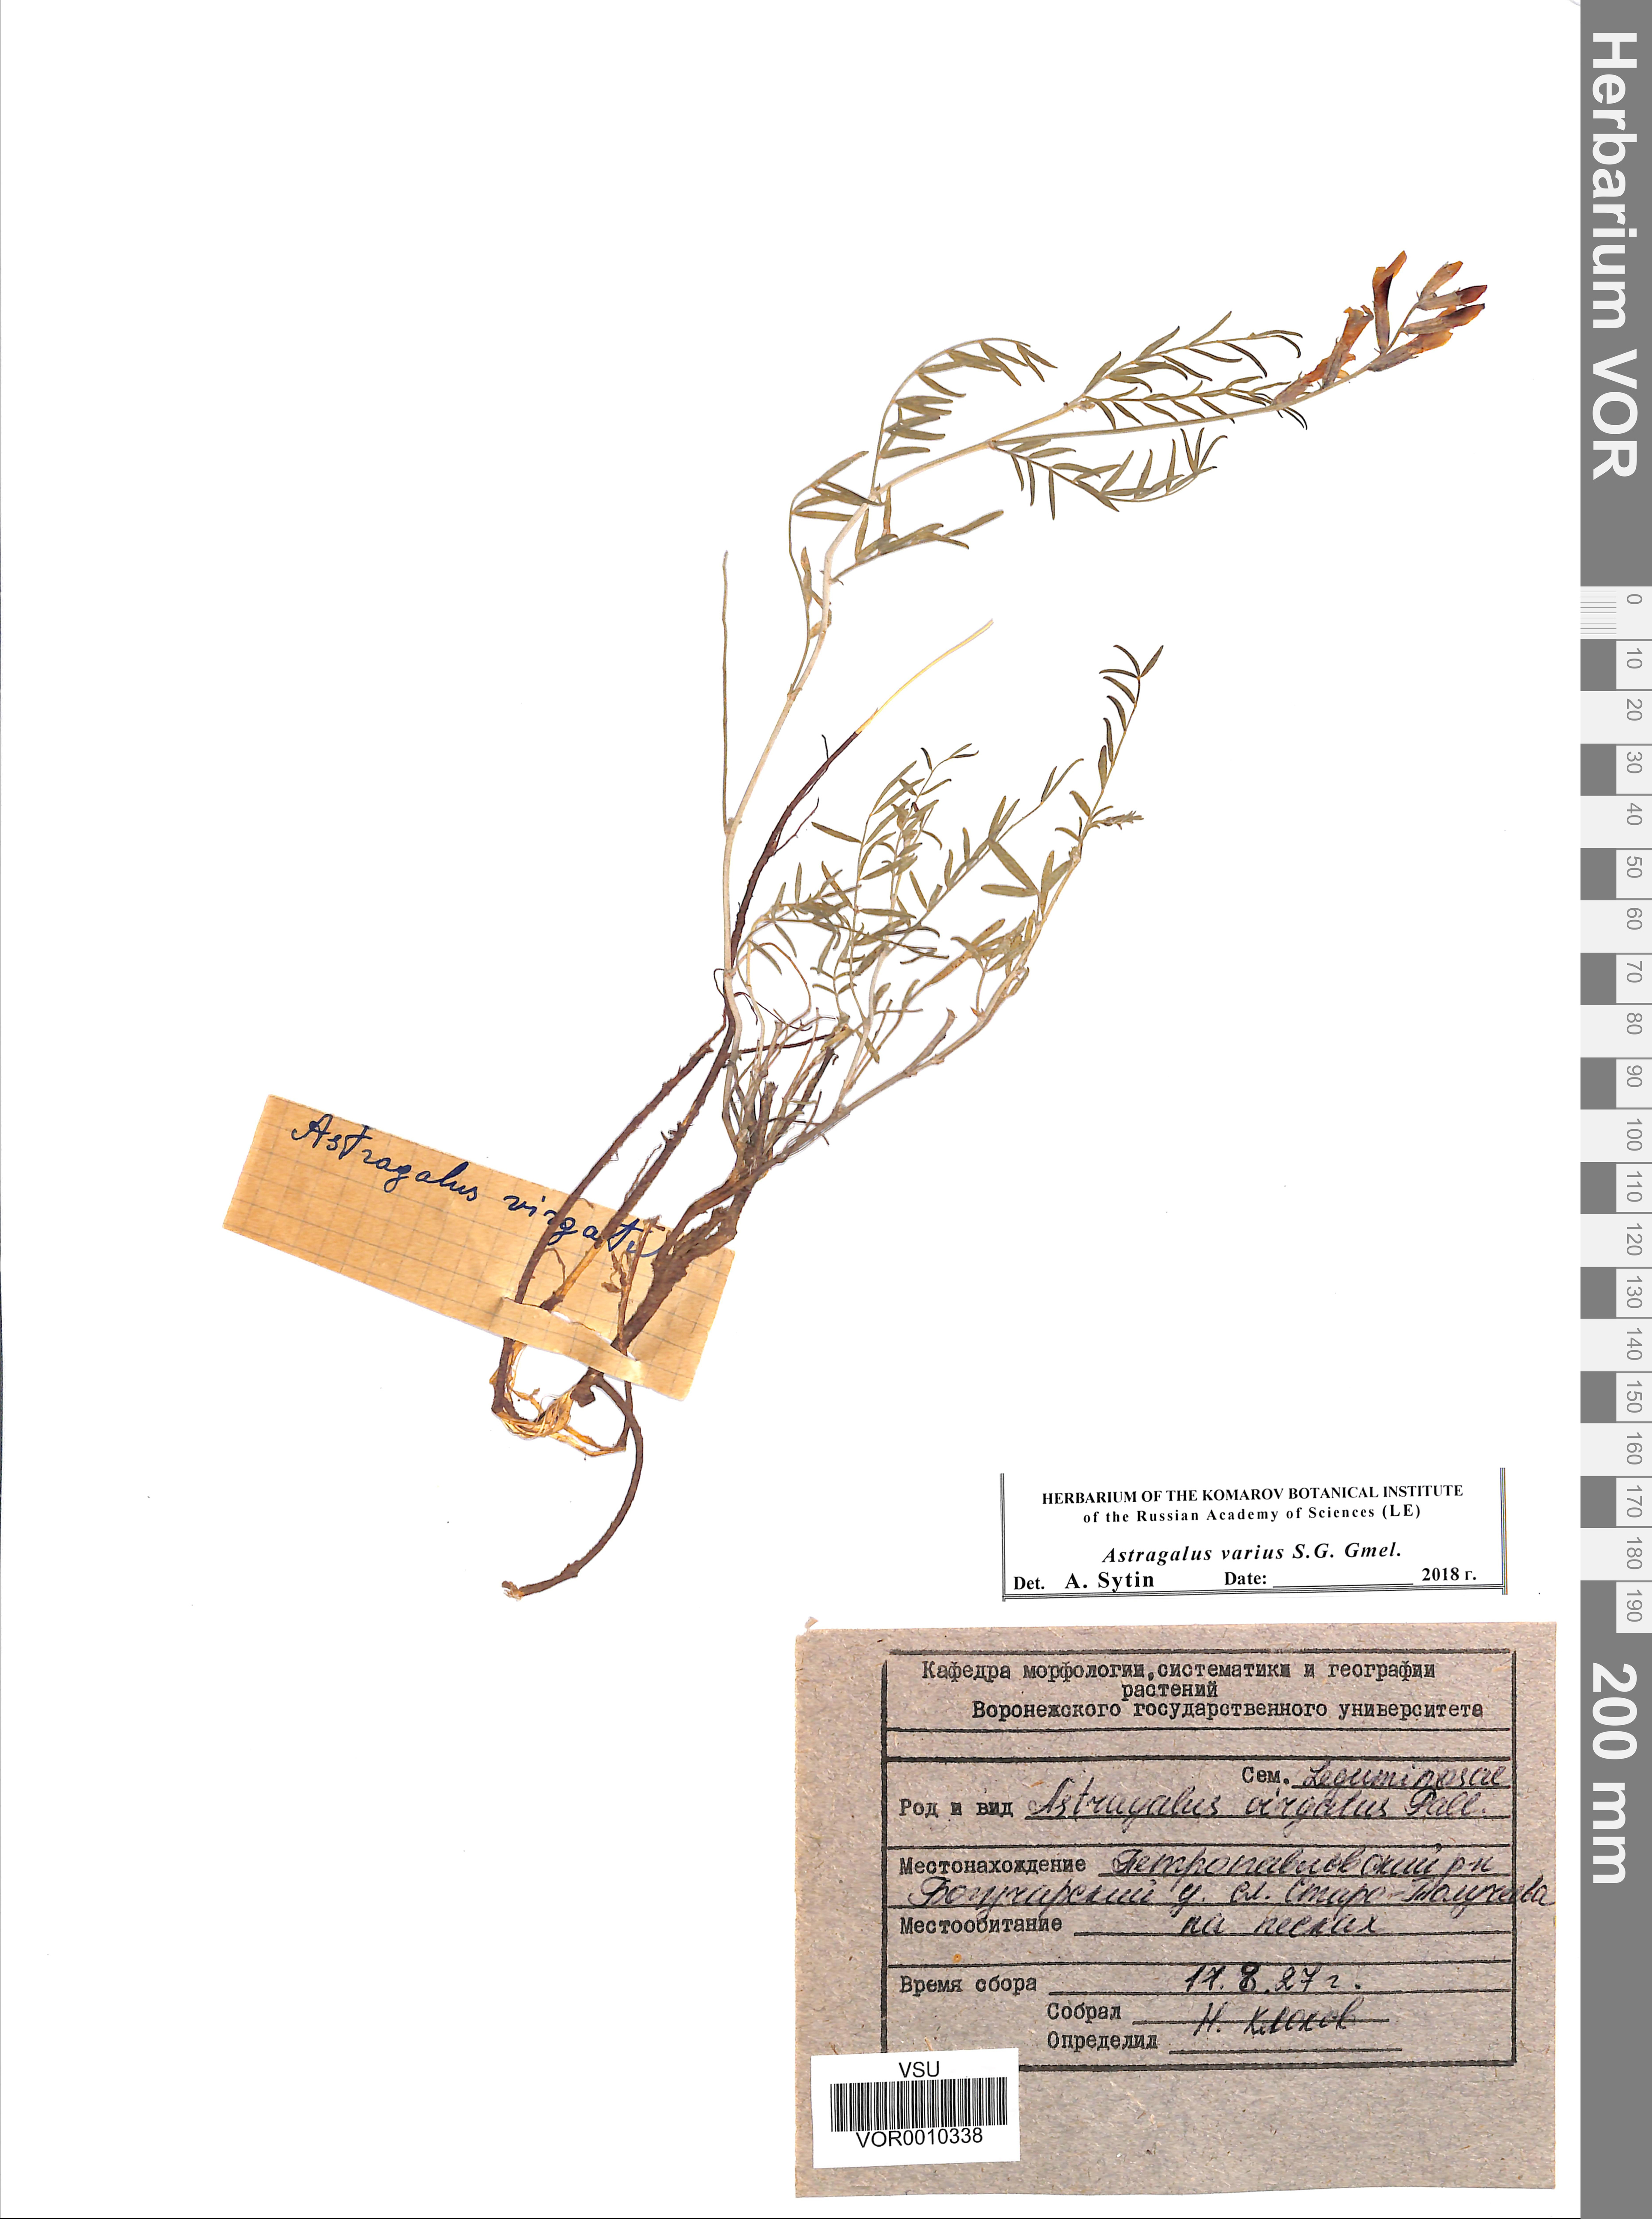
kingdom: Plantae
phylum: Tracheophyta
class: Magnoliopsida
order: Fabales
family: Fabaceae
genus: Astragalus
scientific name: Astragalus varius
